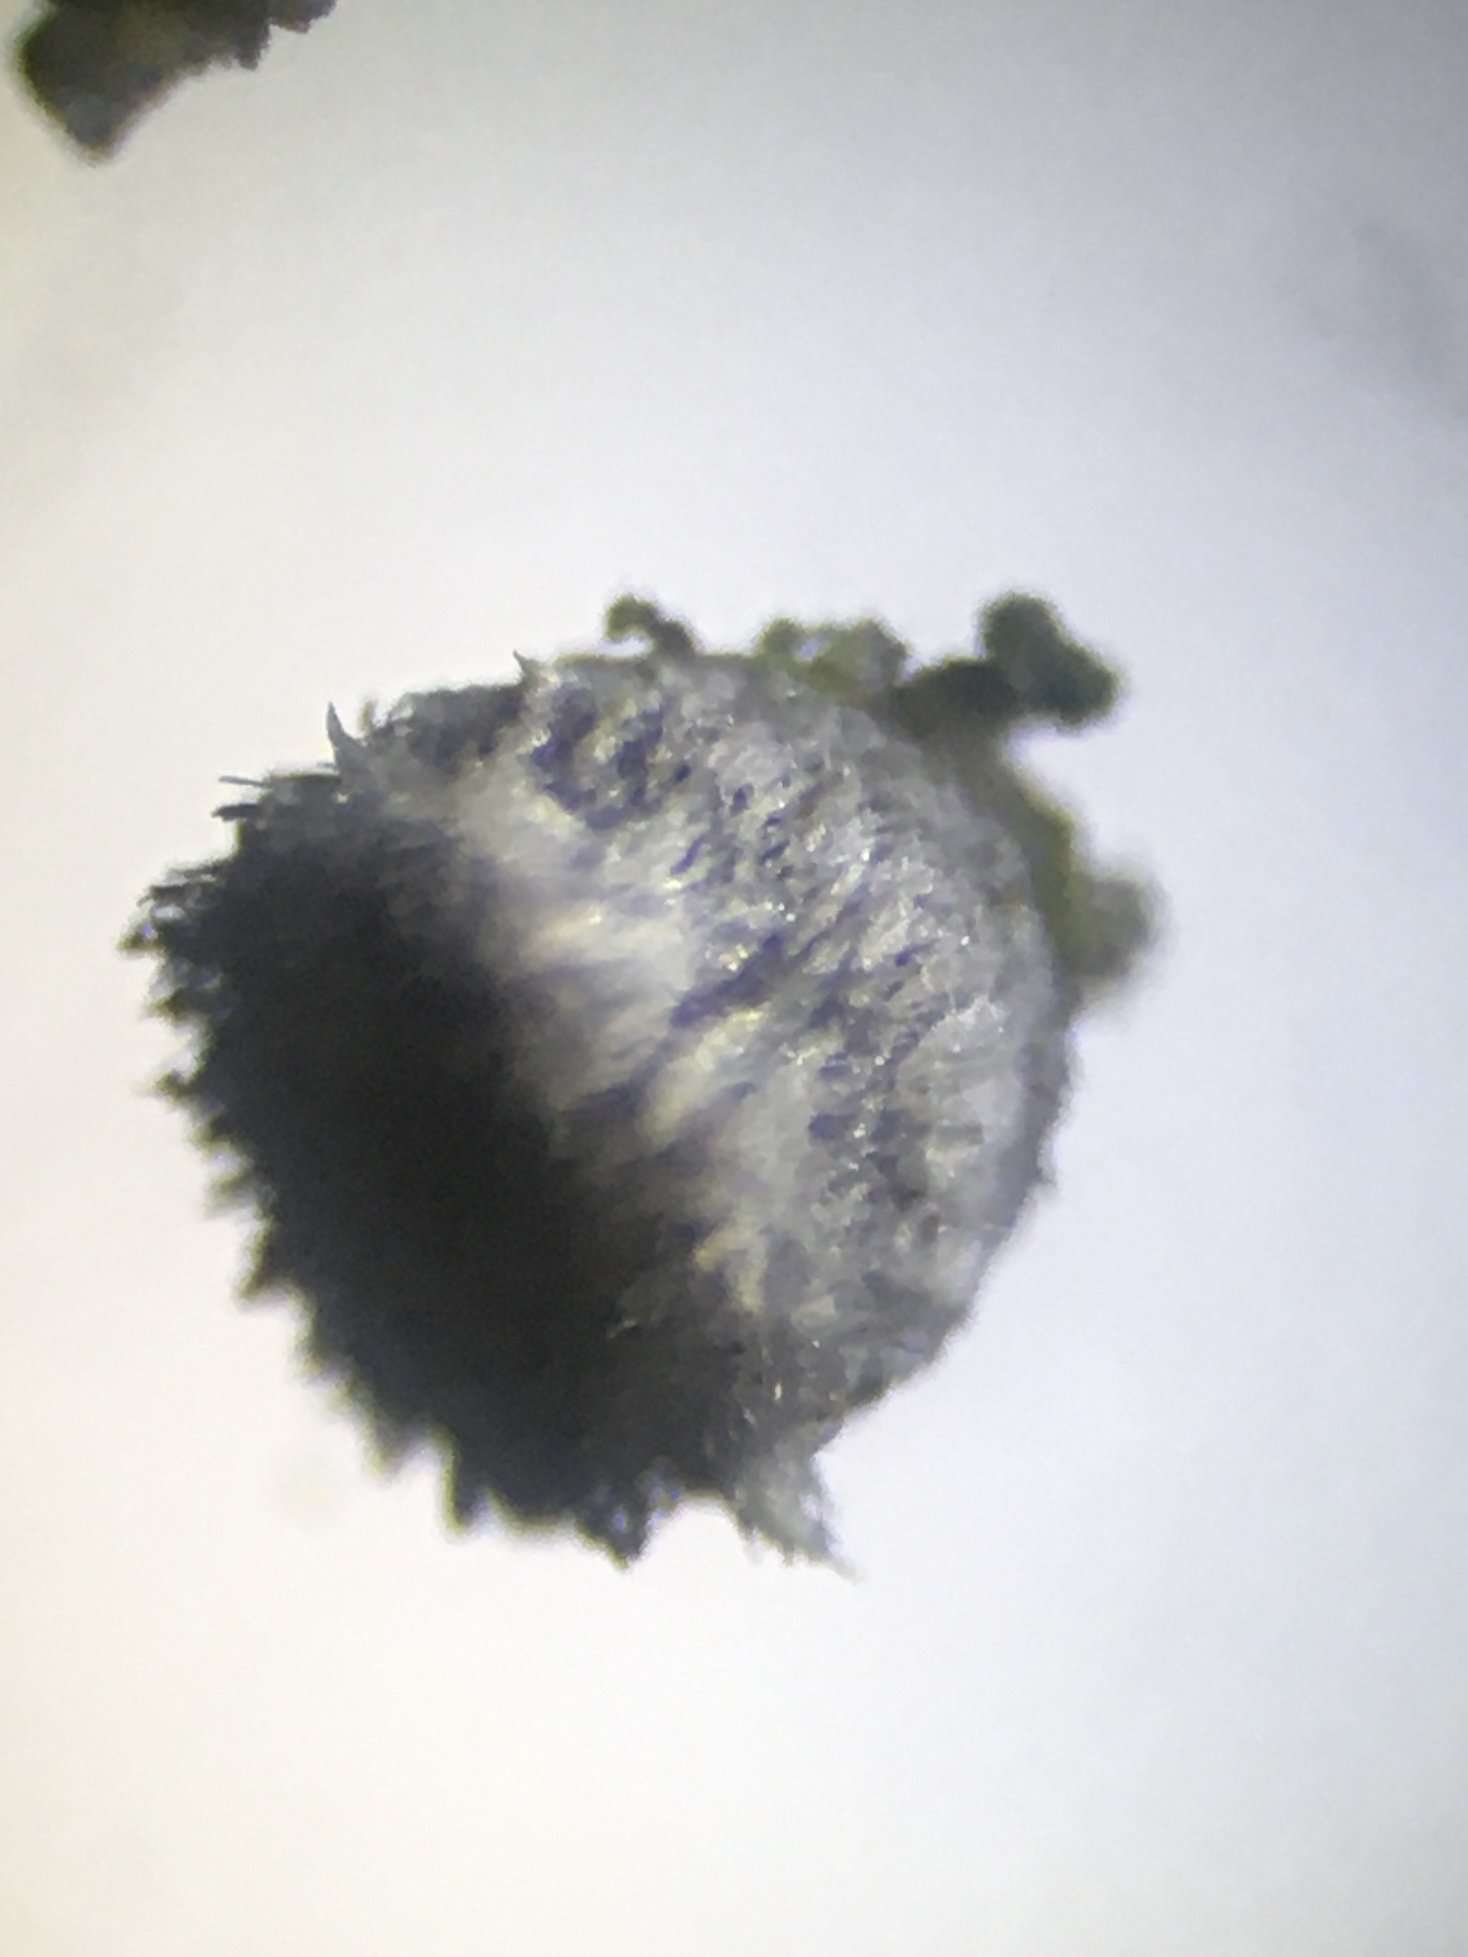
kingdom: Fungi
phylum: Basidiomycota
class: Agaricomycetes
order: Agaricales
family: Niaceae
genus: Lachnella
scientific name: Lachnella alboviolascens
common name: grå frynserede
